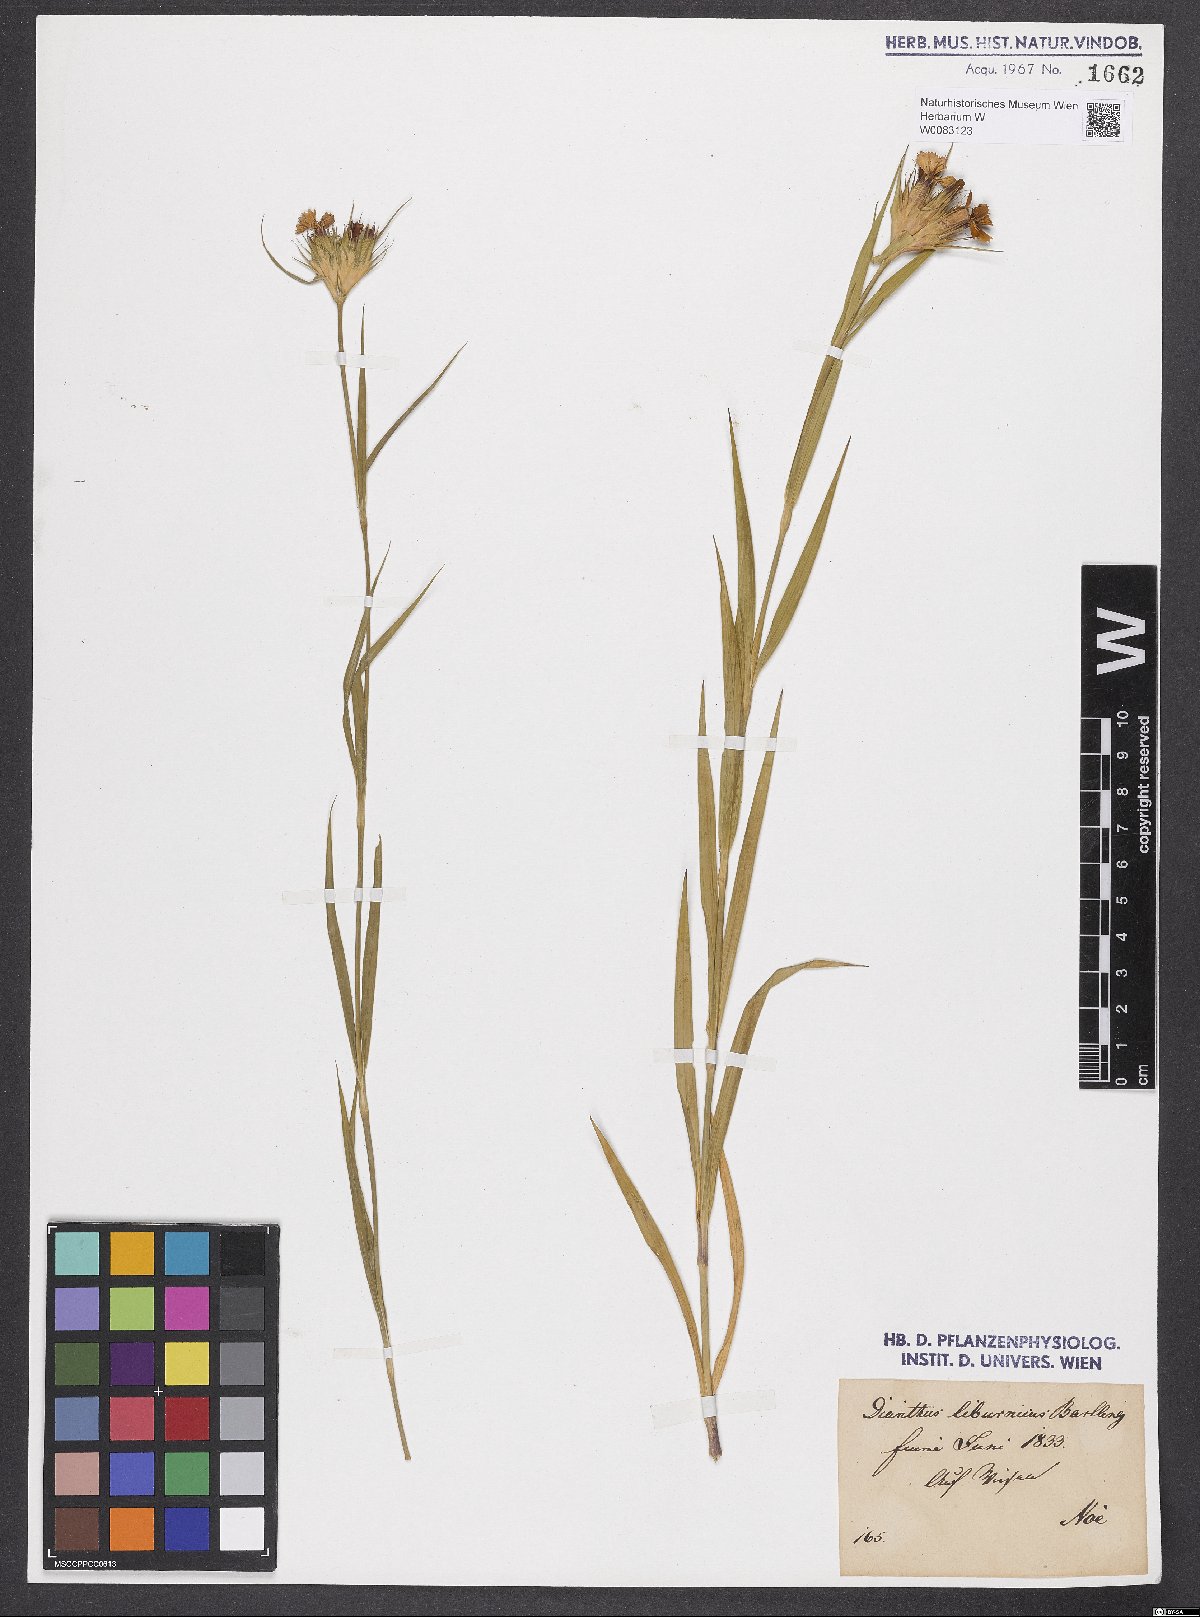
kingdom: Plantae
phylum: Tracheophyta
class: Magnoliopsida
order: Caryophyllales
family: Caryophyllaceae
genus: Dianthus
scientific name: Dianthus balbisii
